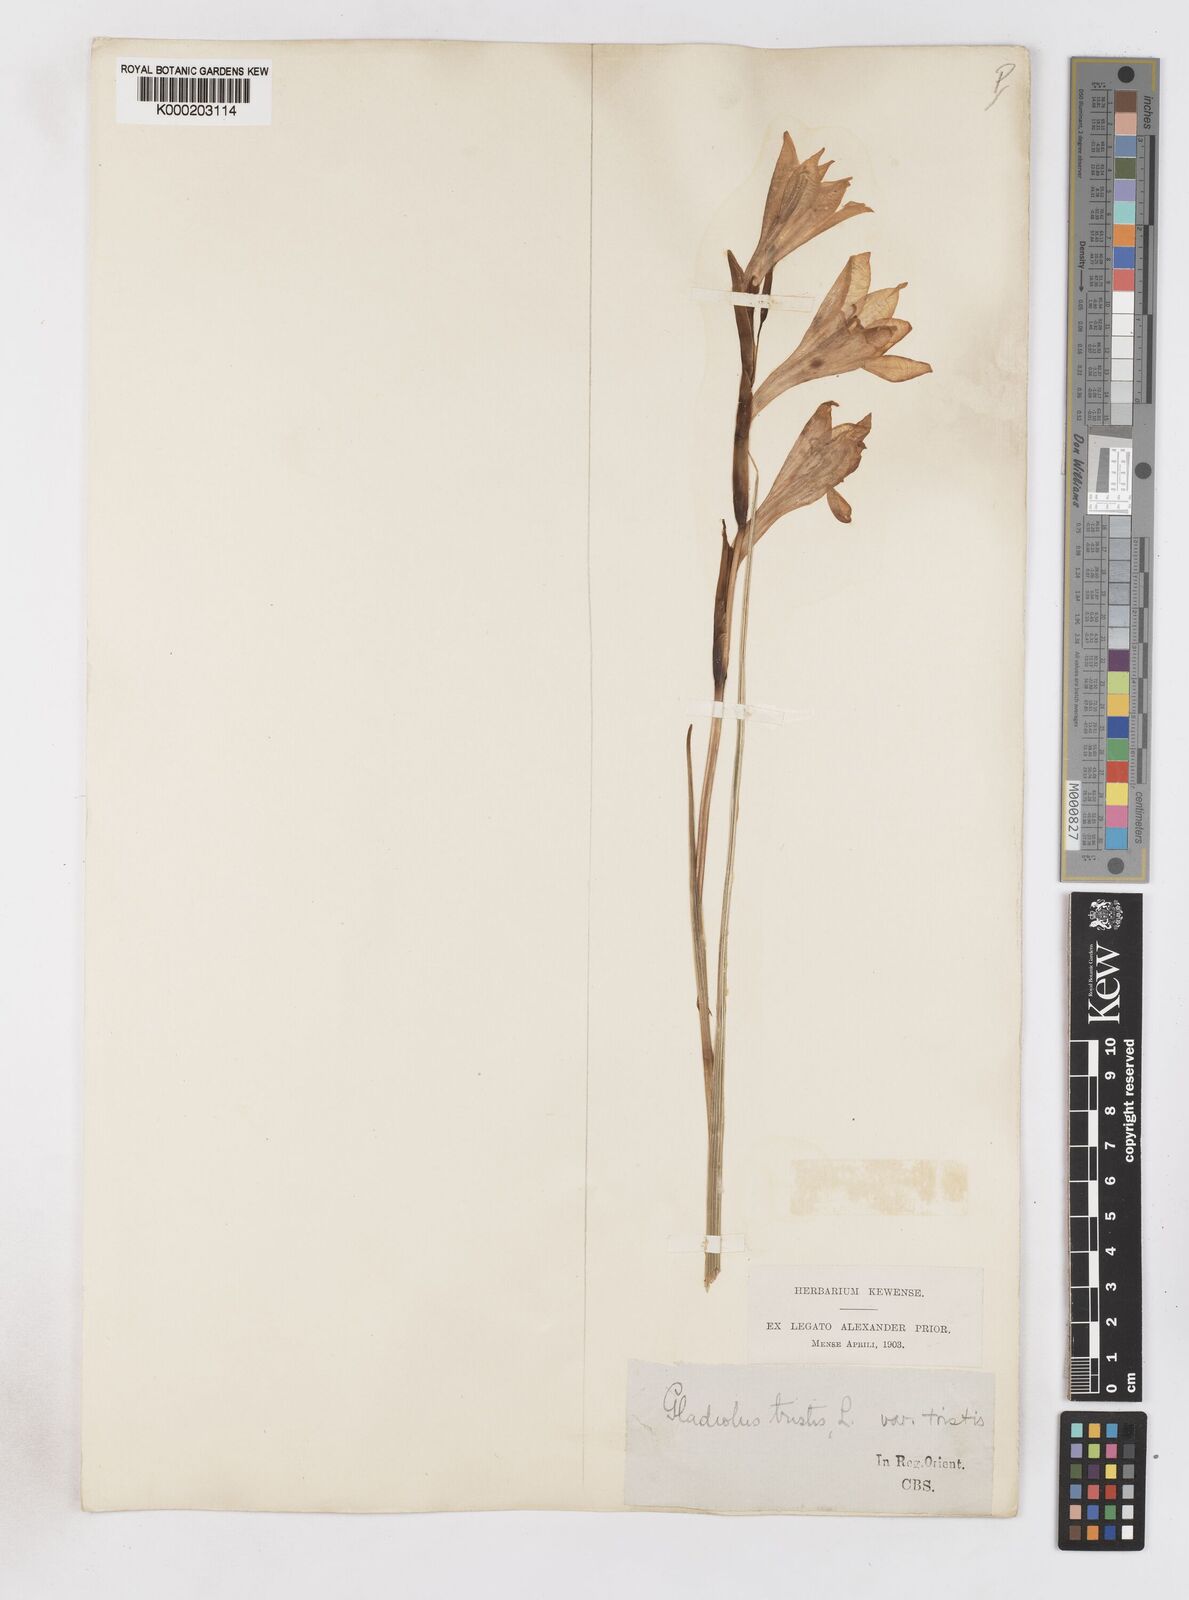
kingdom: Plantae
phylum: Tracheophyta
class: Liliopsida
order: Asparagales
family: Iridaceae
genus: Gladiolus
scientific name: Gladiolus tristis
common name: Ever-flowering gladiolus
